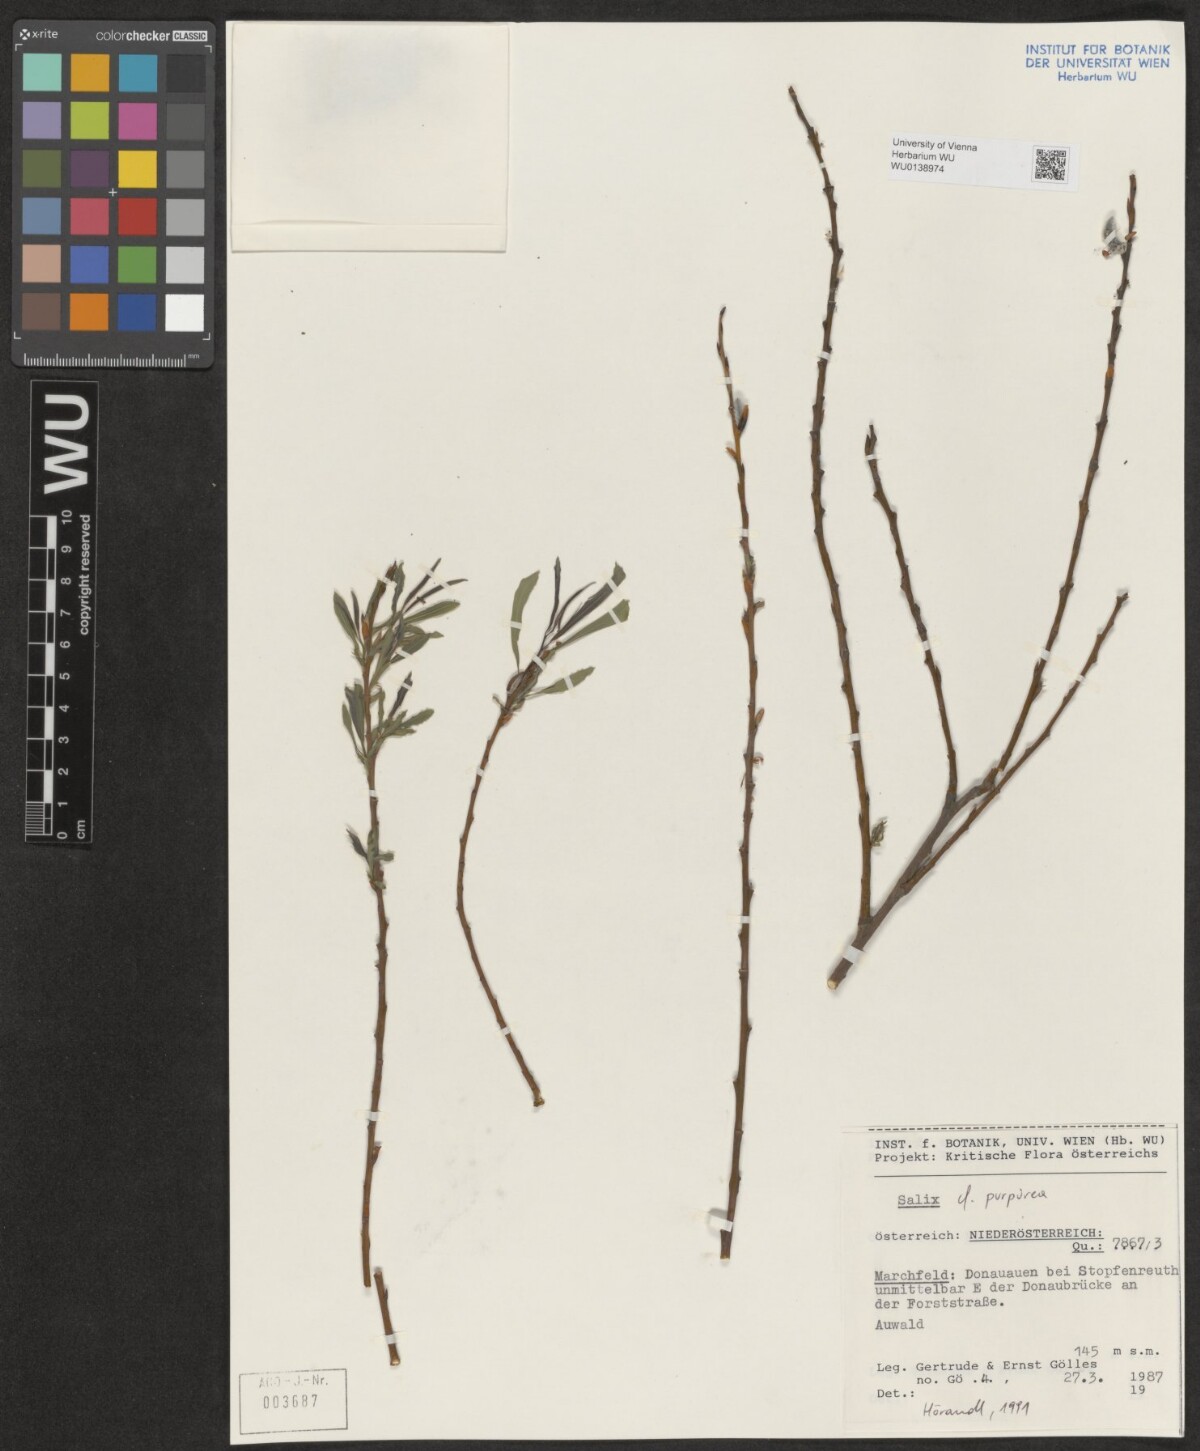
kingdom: Plantae
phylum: Tracheophyta
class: Magnoliopsida
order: Malpighiales
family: Salicaceae
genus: Salix
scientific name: Salix purpurea
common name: Purple willow
